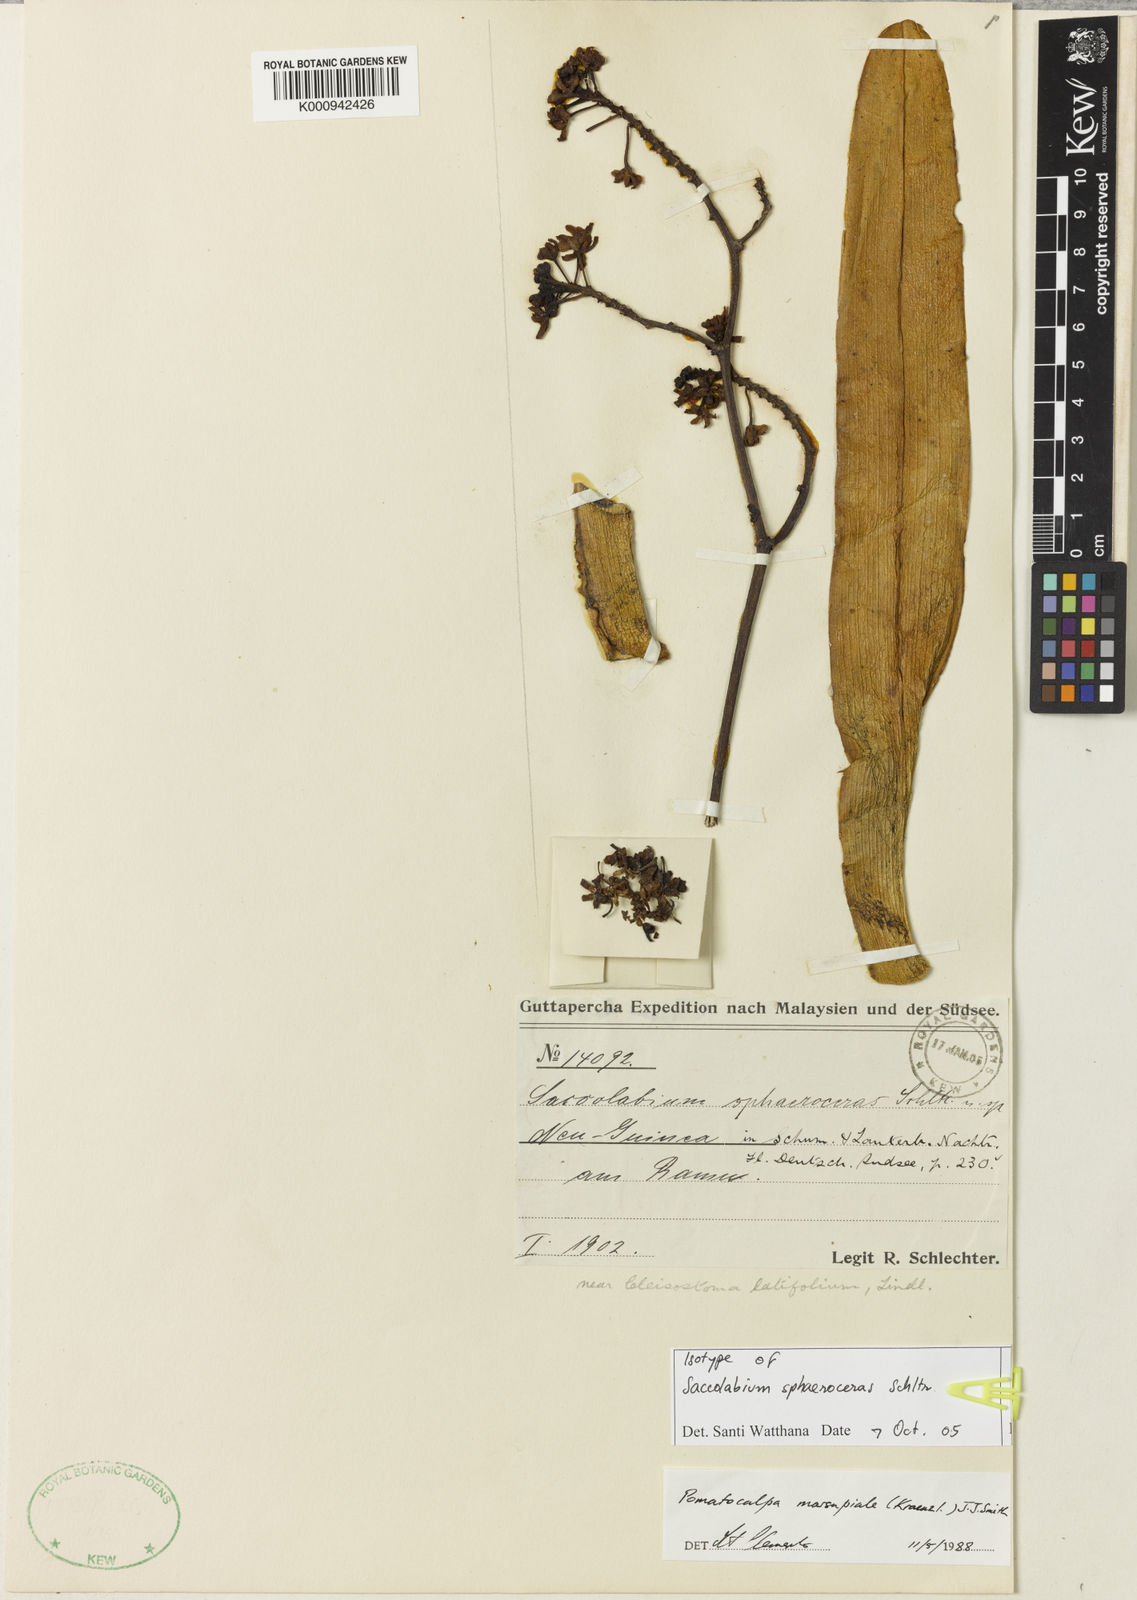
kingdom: Plantae
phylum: Tracheophyta
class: Liliopsida
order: Asparagales
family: Orchidaceae
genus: Pomatocalpa
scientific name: Pomatocalpa marsupiale
